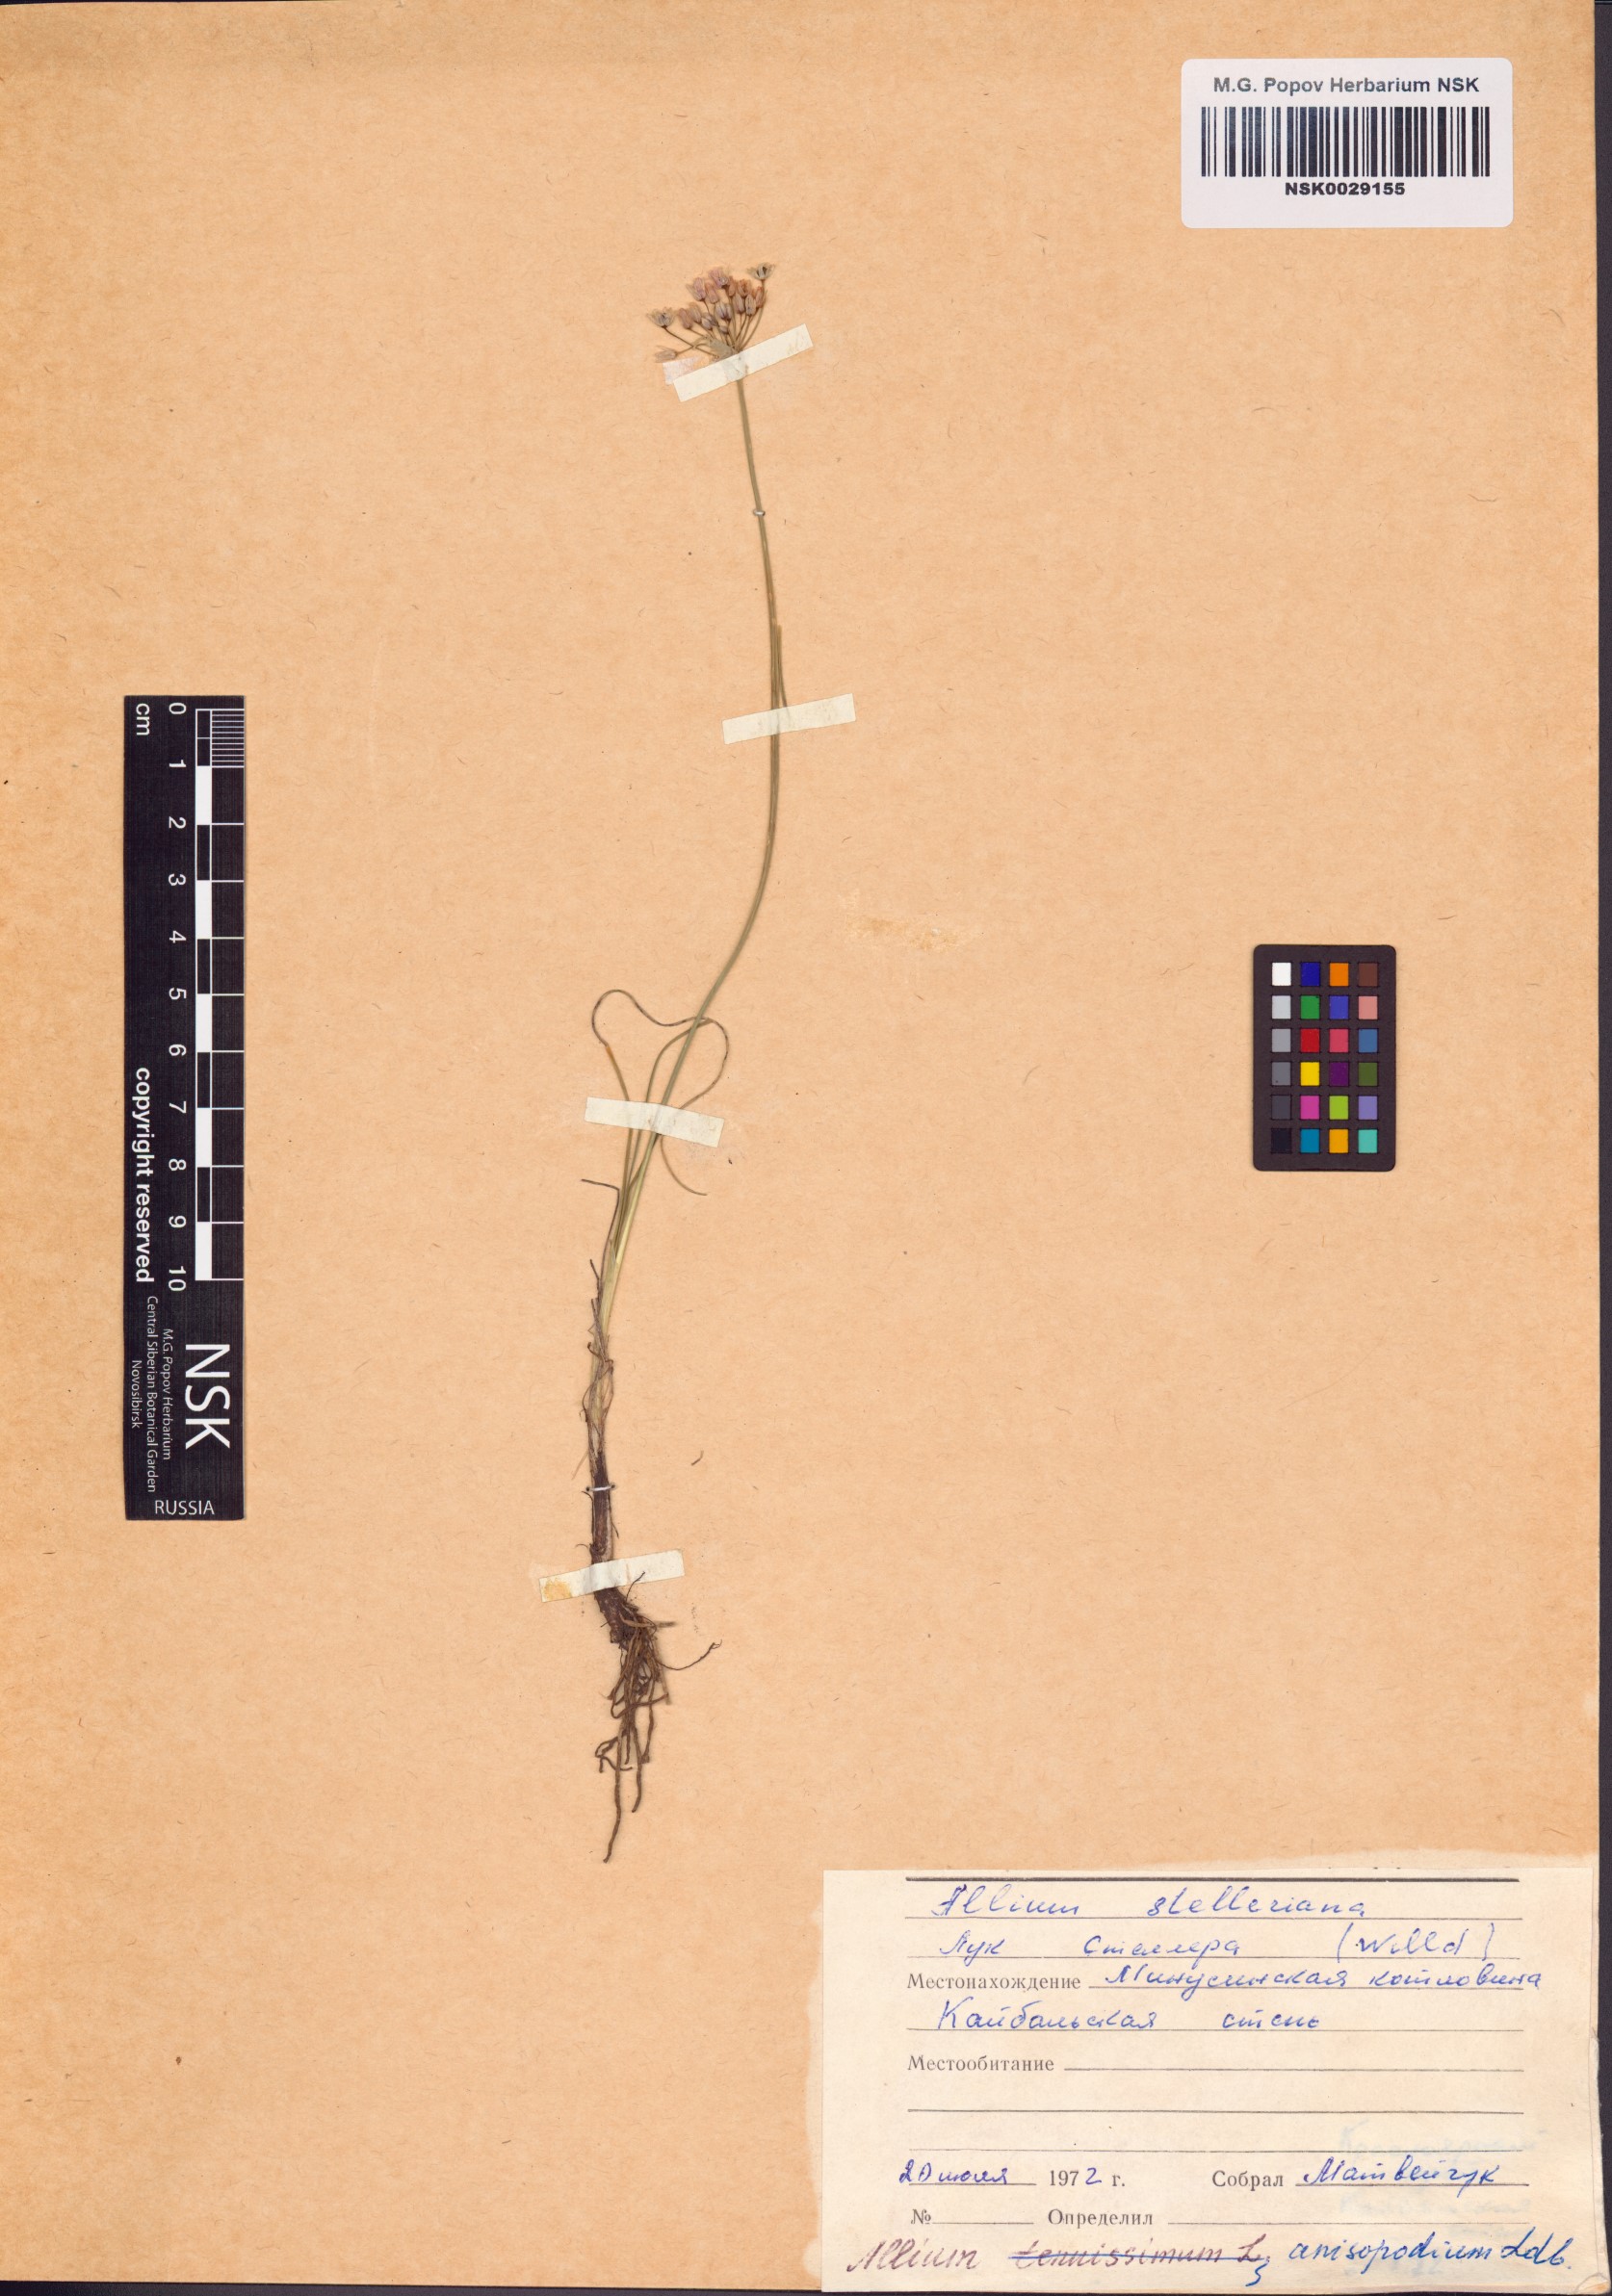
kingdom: Plantae
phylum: Tracheophyta
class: Liliopsida
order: Asparagales
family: Amaryllidaceae
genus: Allium
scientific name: Allium anisopodium
